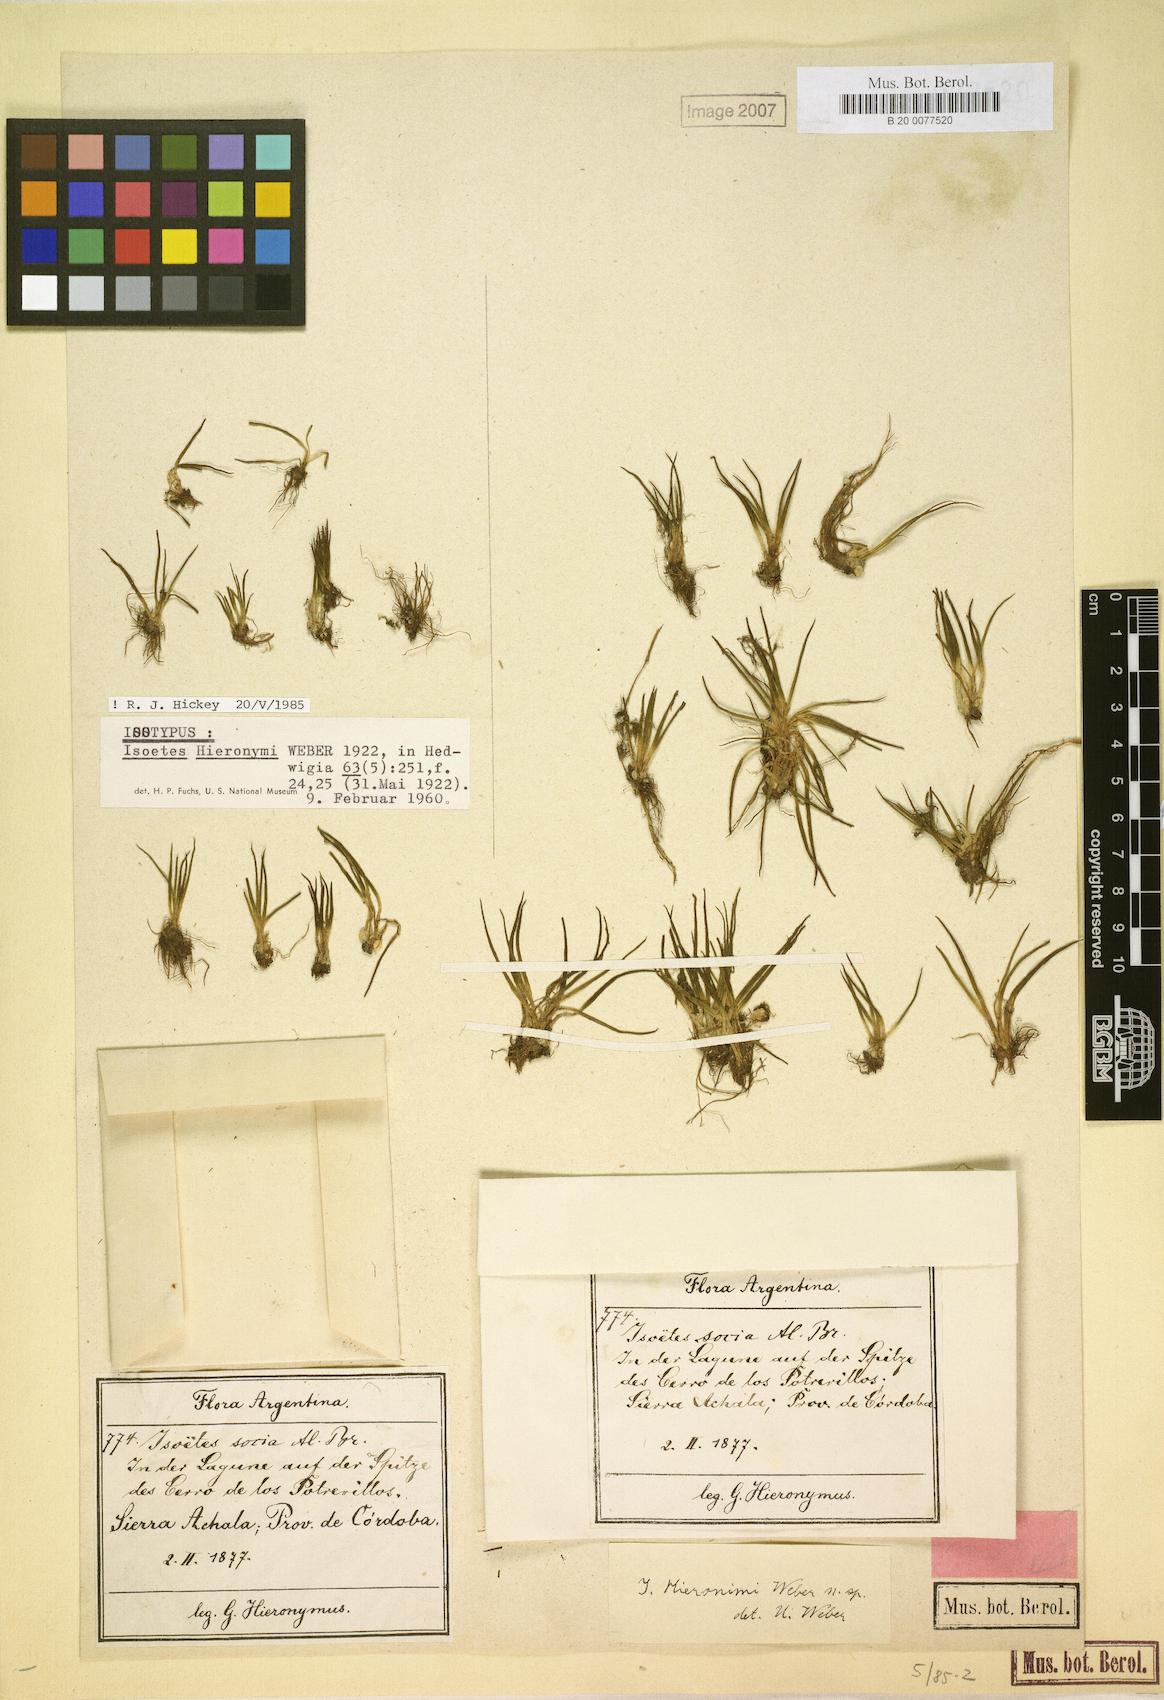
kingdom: Plantae
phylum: Tracheophyta
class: Lycopodiopsida
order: Isoetales
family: Isoetaceae
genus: Isoetes
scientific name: Isoetes hieronymi
